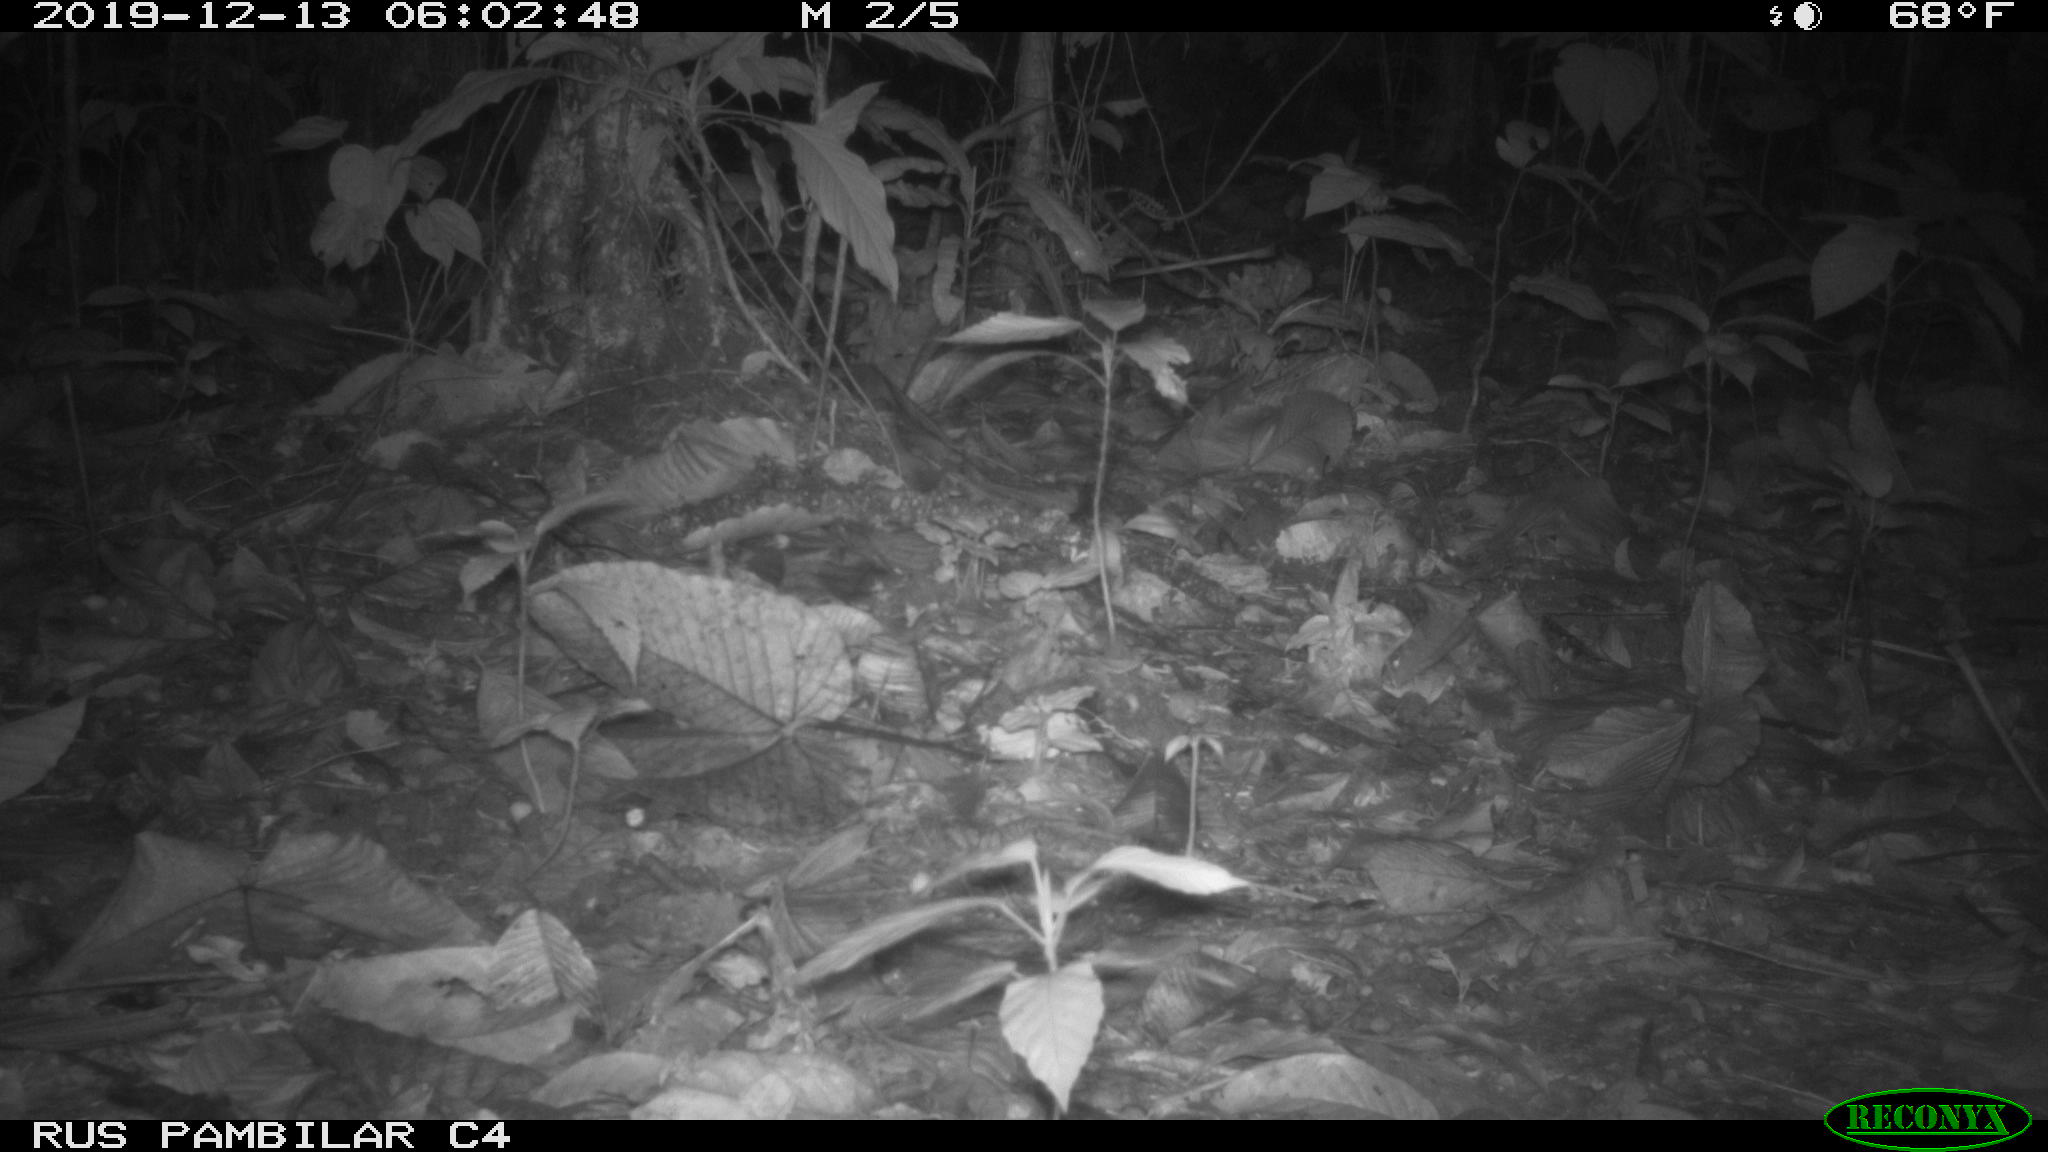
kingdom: Animalia
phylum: Chordata
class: Aves
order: Columbiformes
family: Columbidae
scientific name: Columbidae
